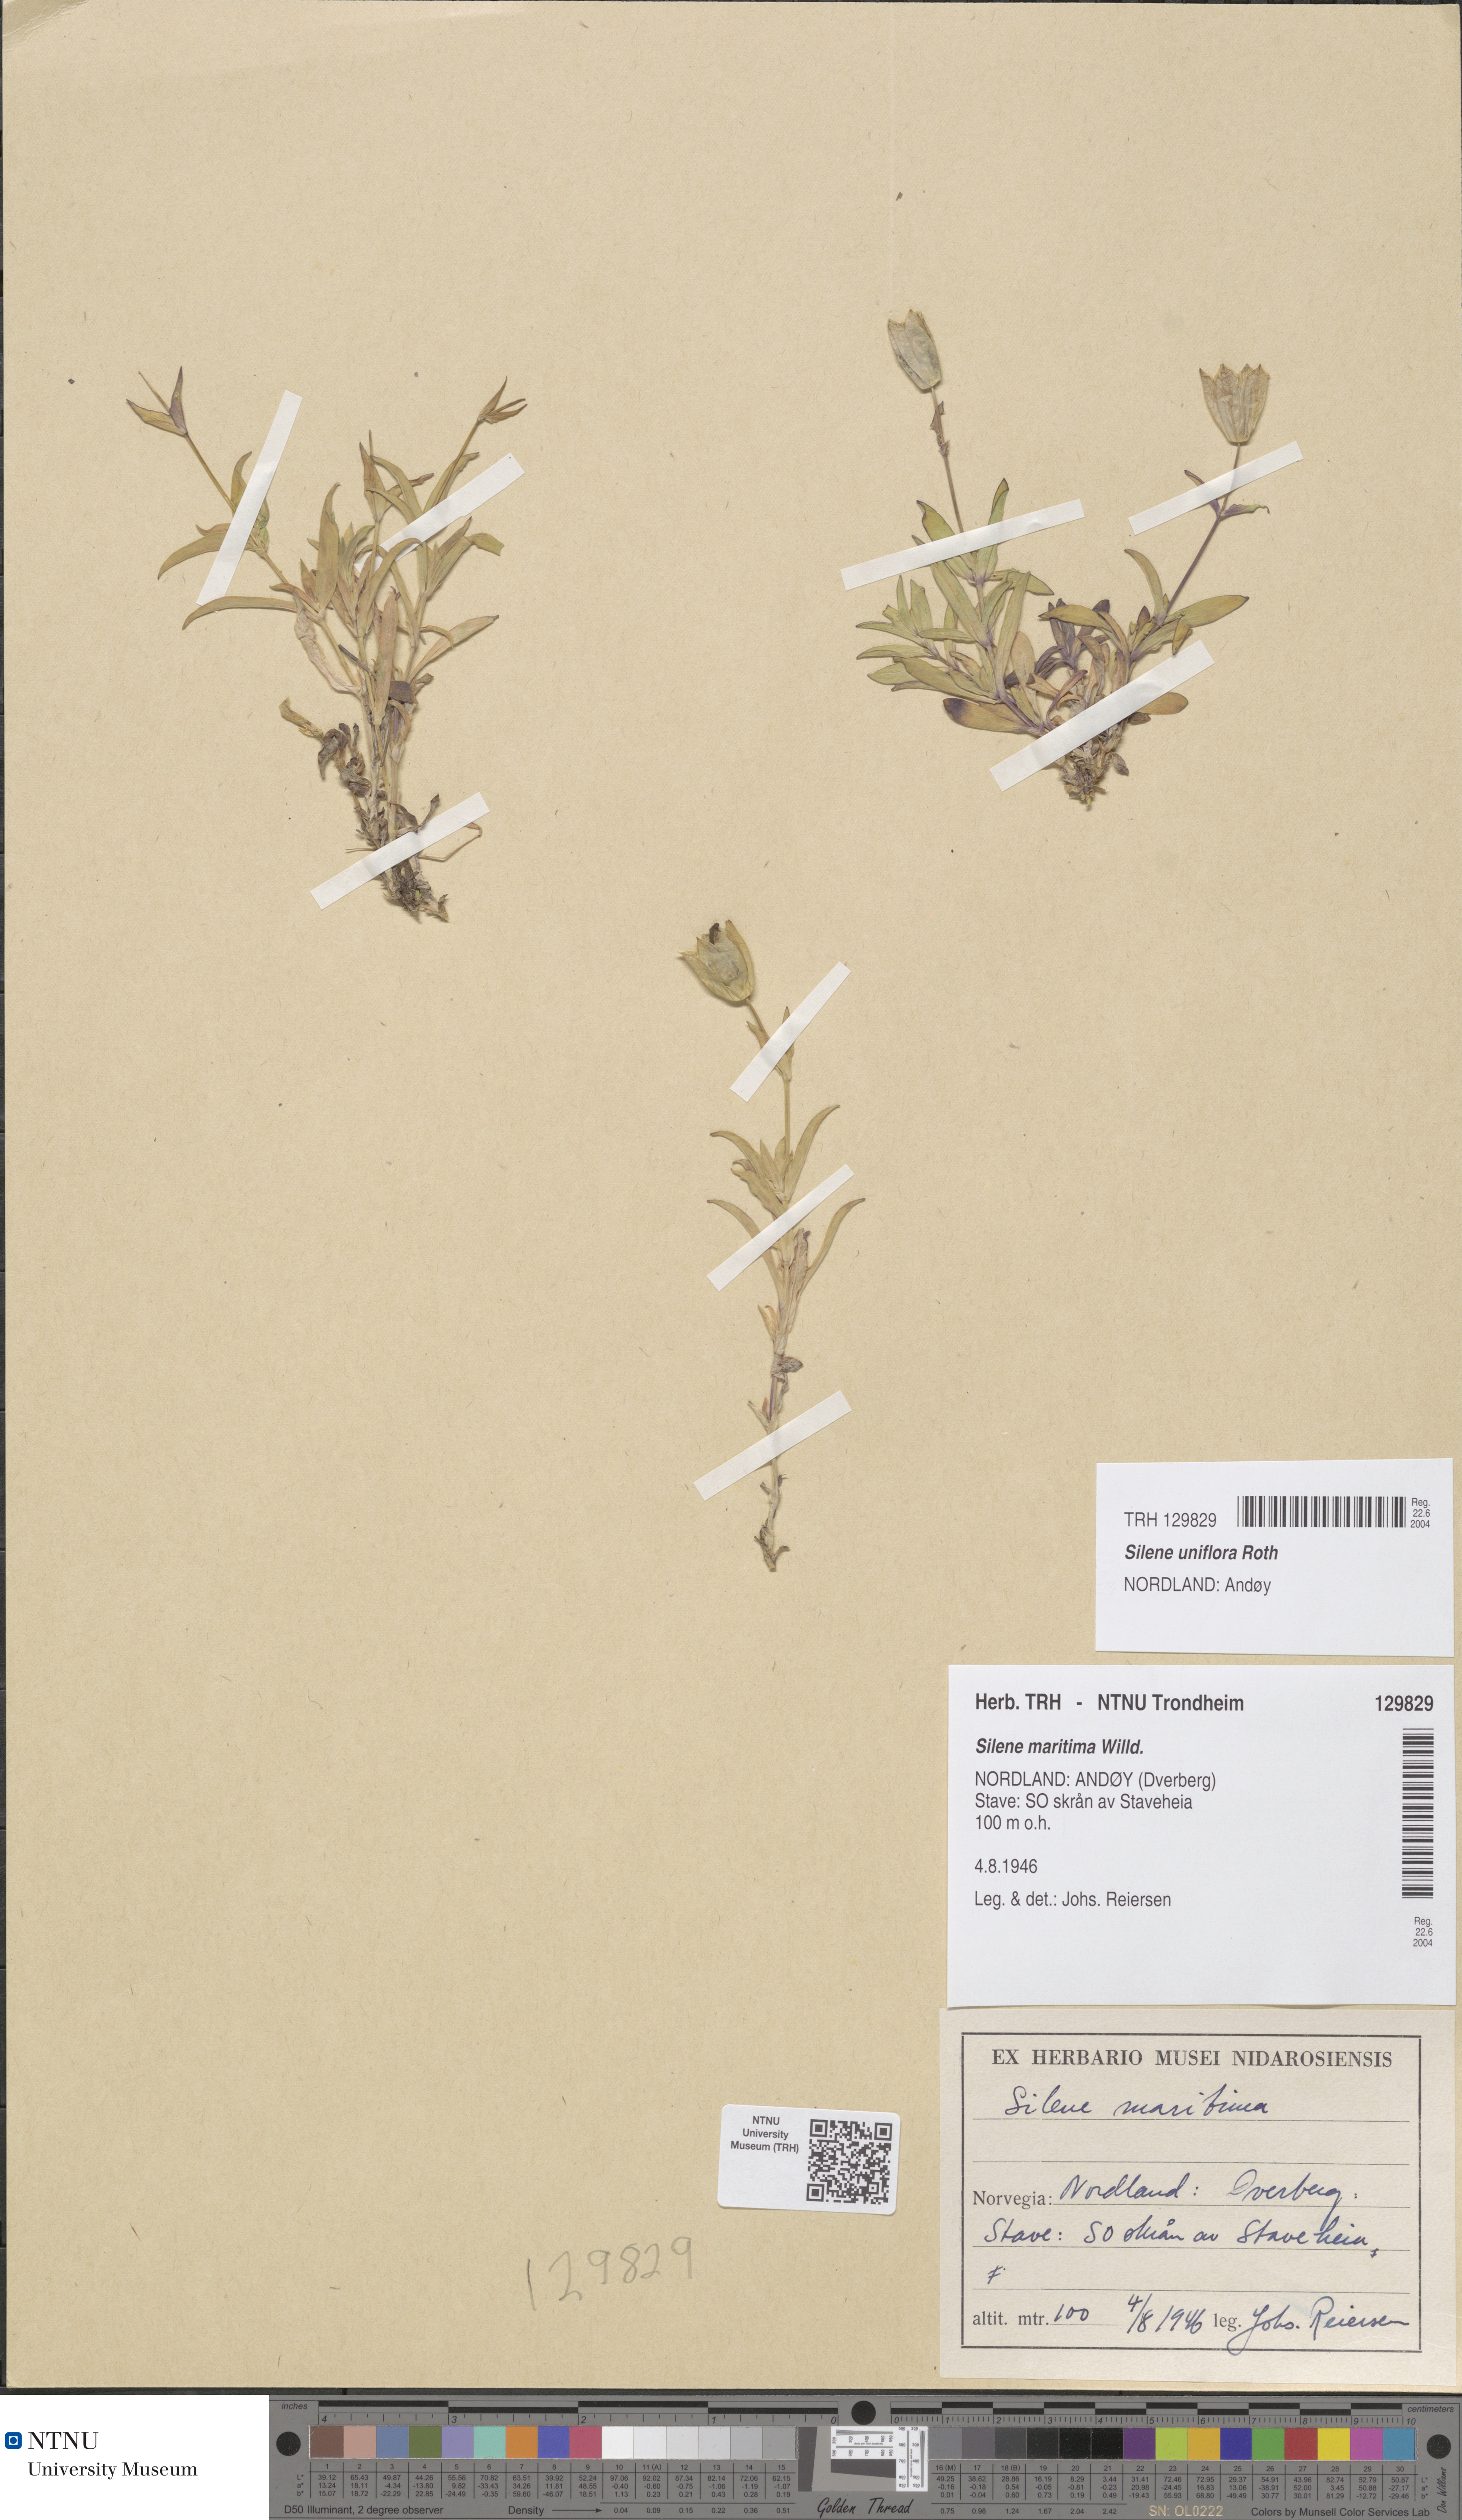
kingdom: Plantae
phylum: Tracheophyta
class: Magnoliopsida
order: Caryophyllales
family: Caryophyllaceae
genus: Silene
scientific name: Silene uniflora
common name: Sea campion
